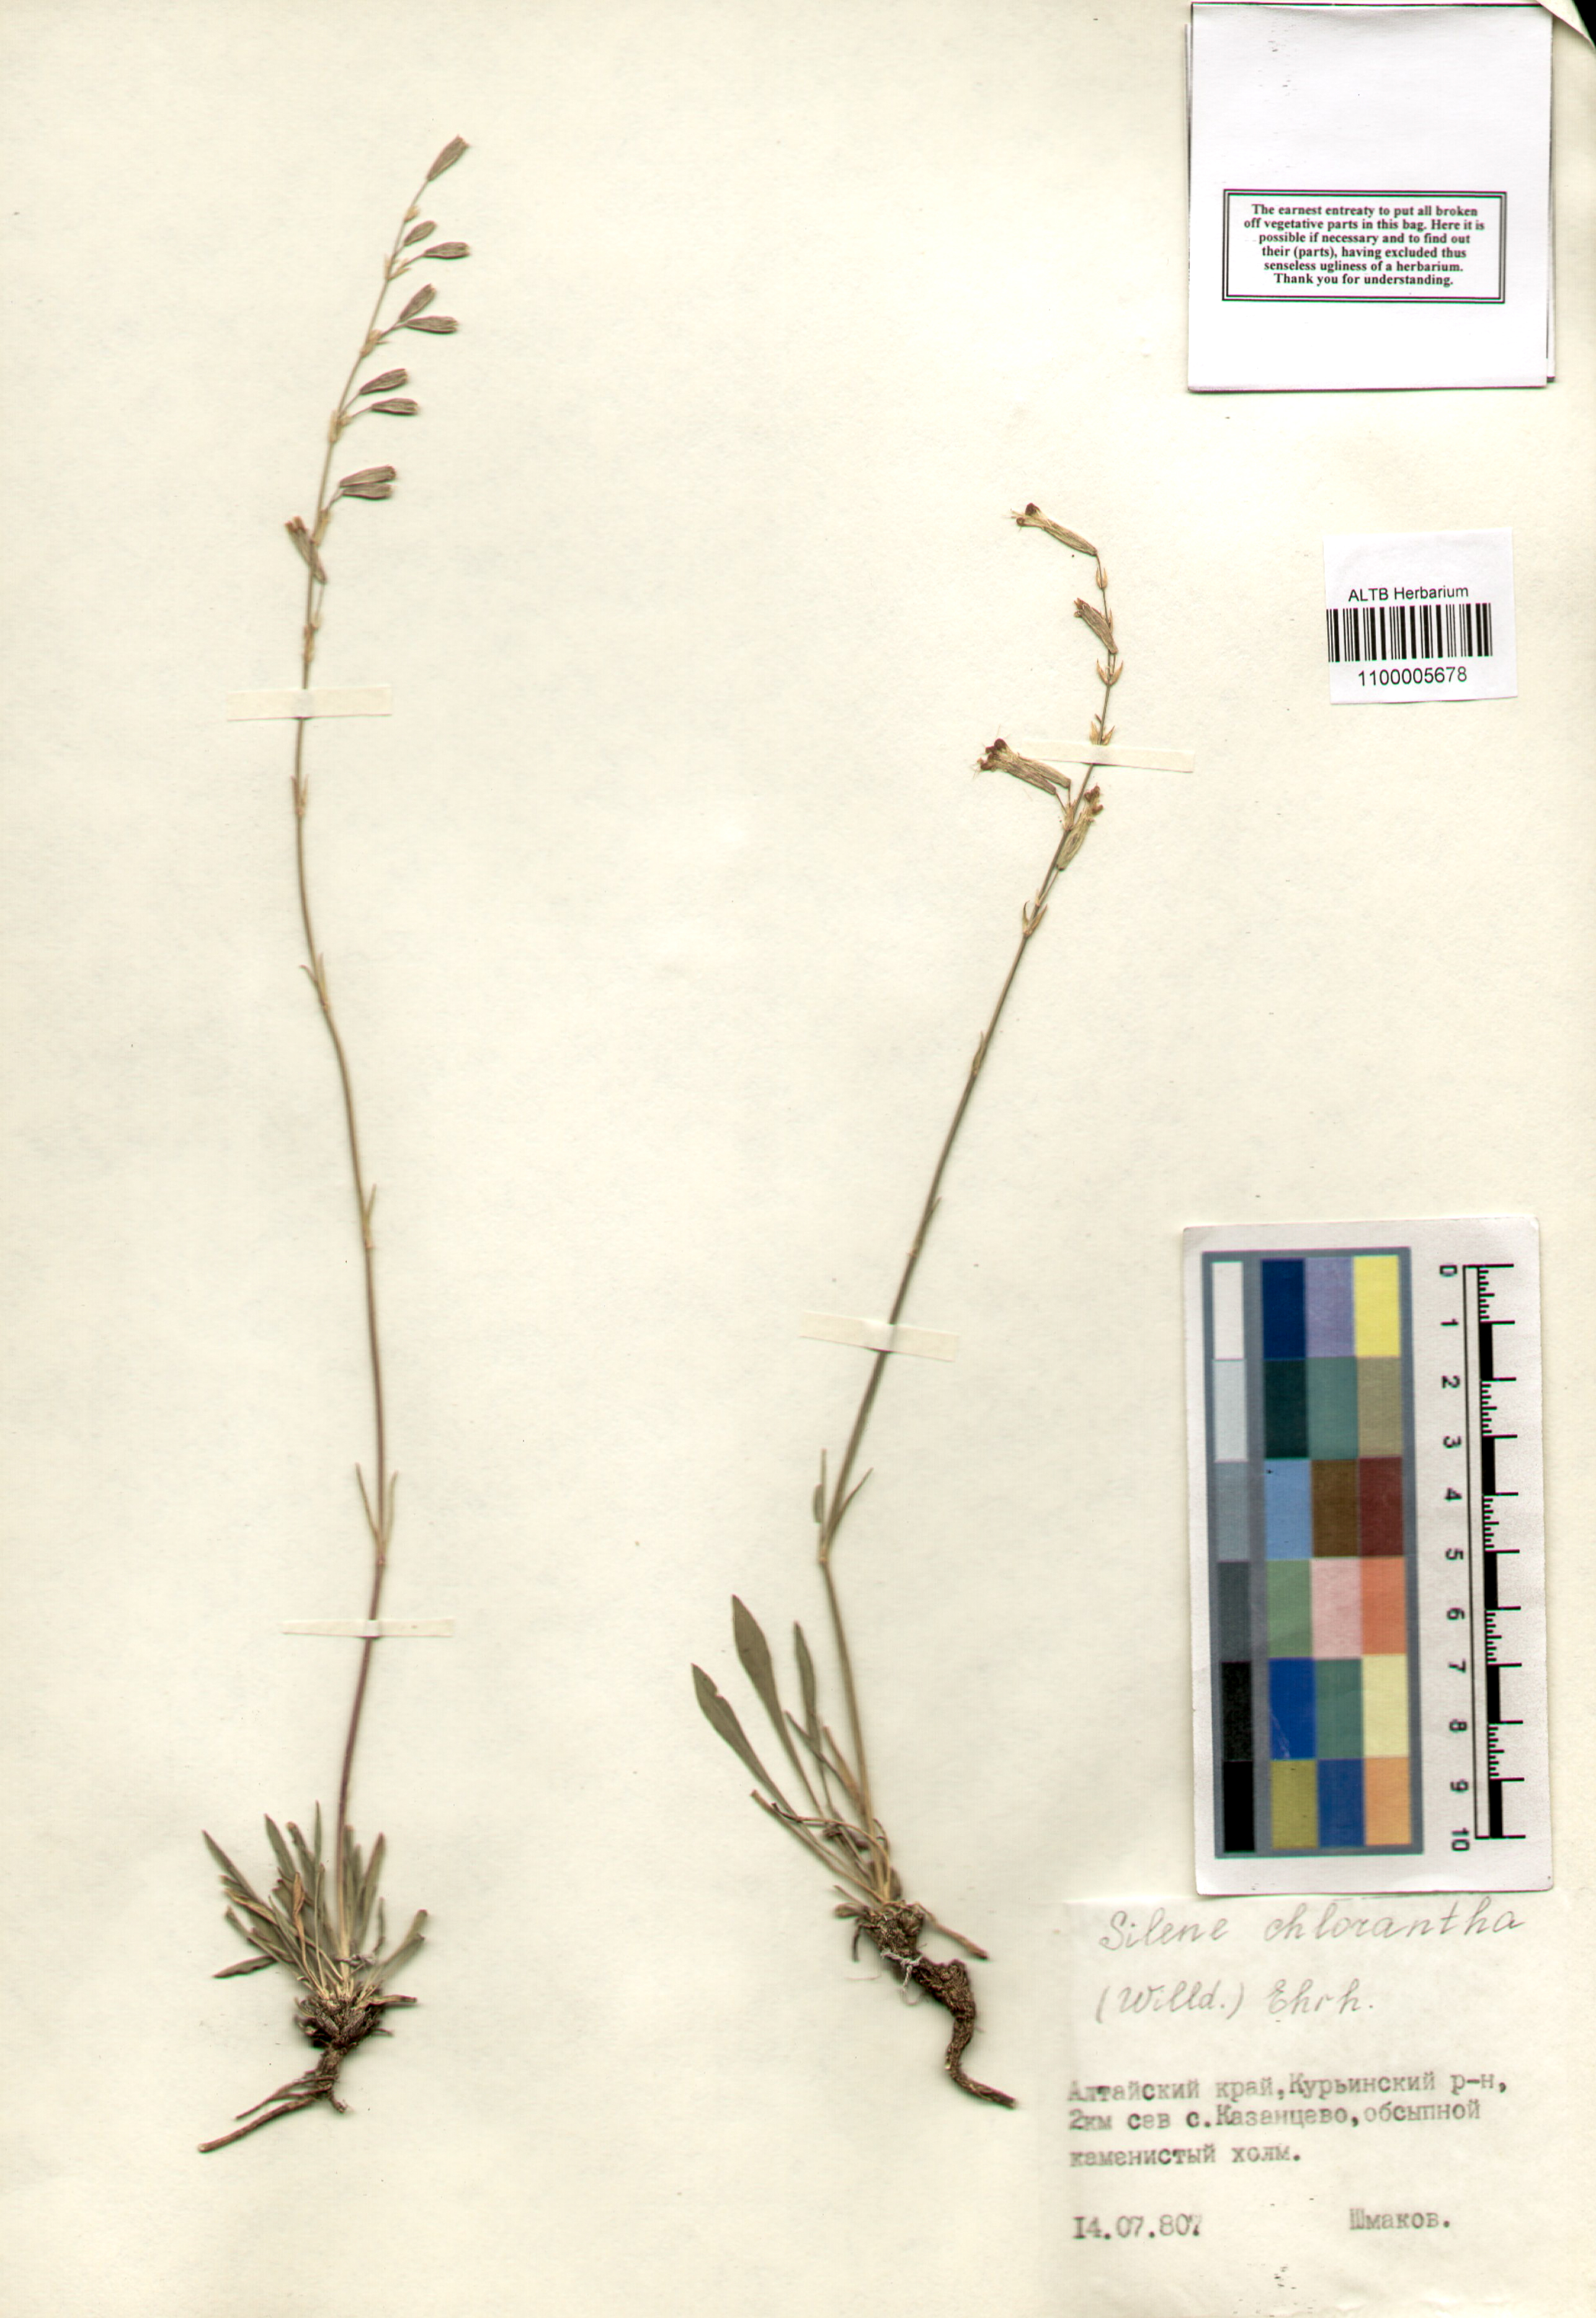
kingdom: Plantae
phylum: Tracheophyta
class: Magnoliopsida
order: Caryophyllales
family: Caryophyllaceae
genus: Silene
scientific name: Silene chlorantha
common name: Yellowgreen catchfly
